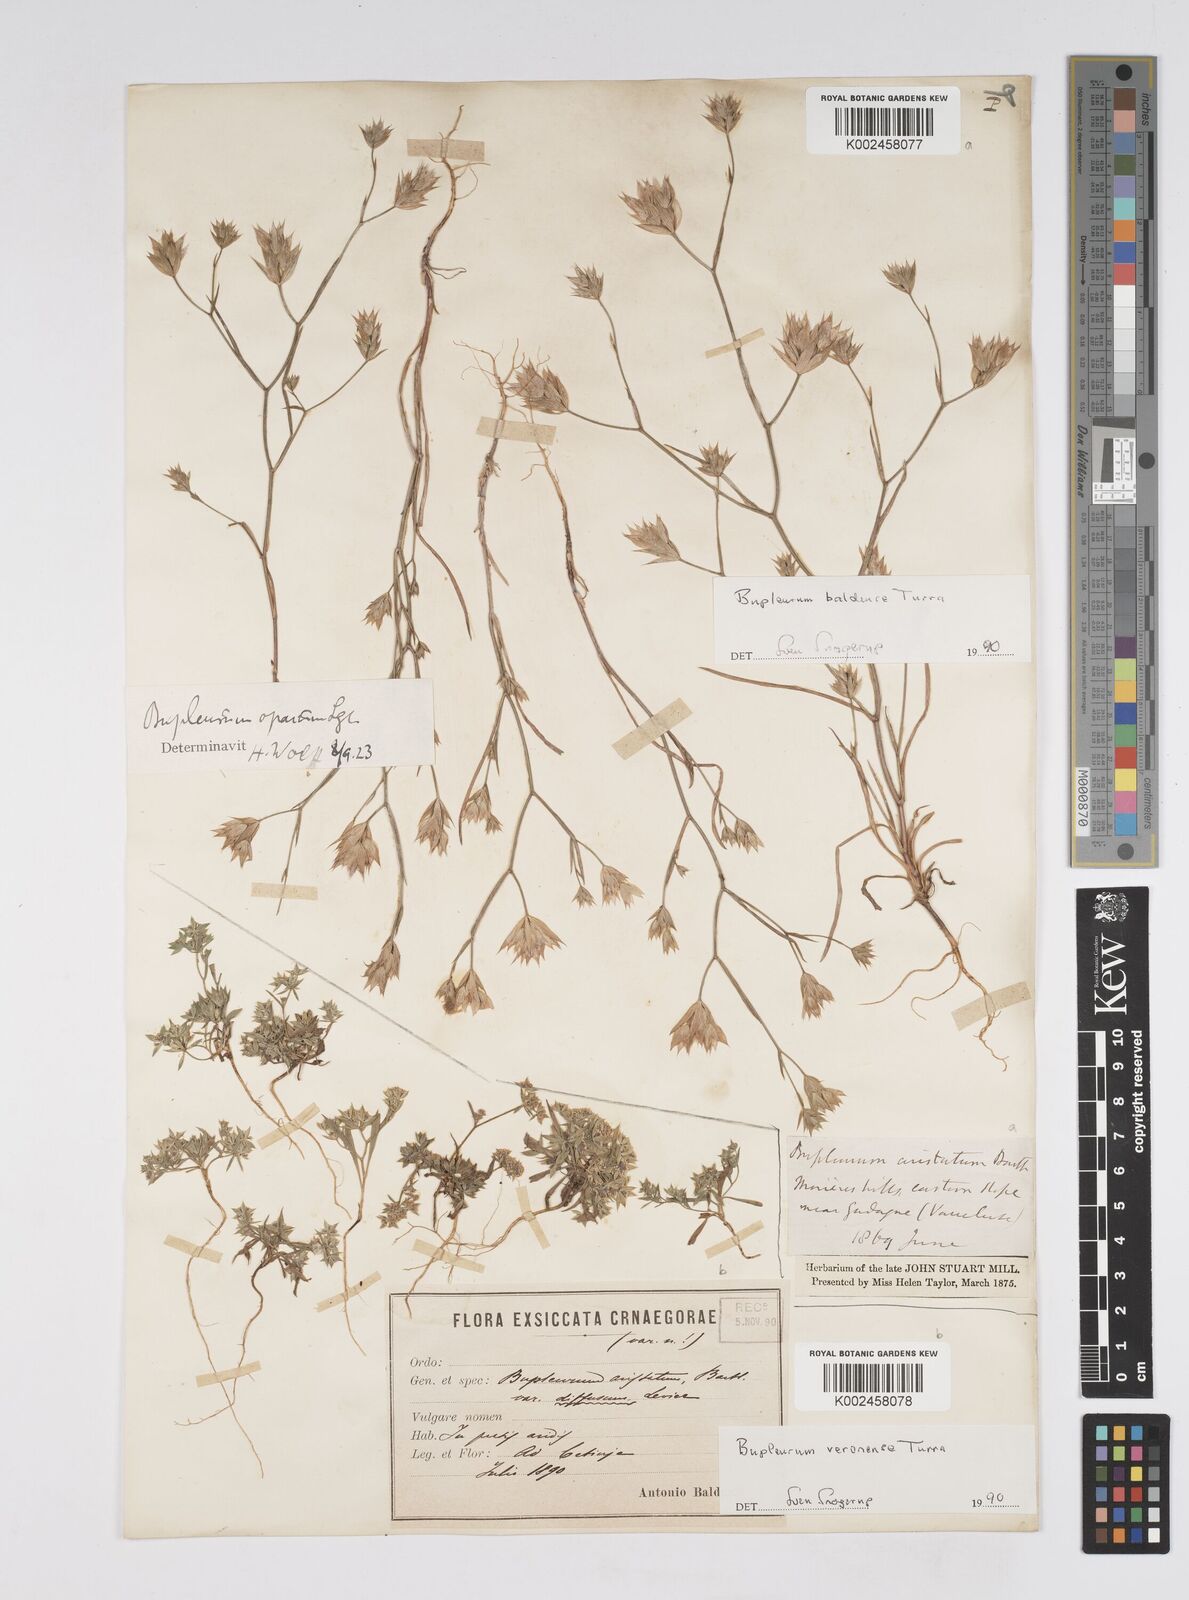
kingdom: Plantae
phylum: Tracheophyta
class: Magnoliopsida
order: Apiales
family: Apiaceae
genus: Bupleurum
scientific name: Bupleurum baldense
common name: Small hare's-ear
